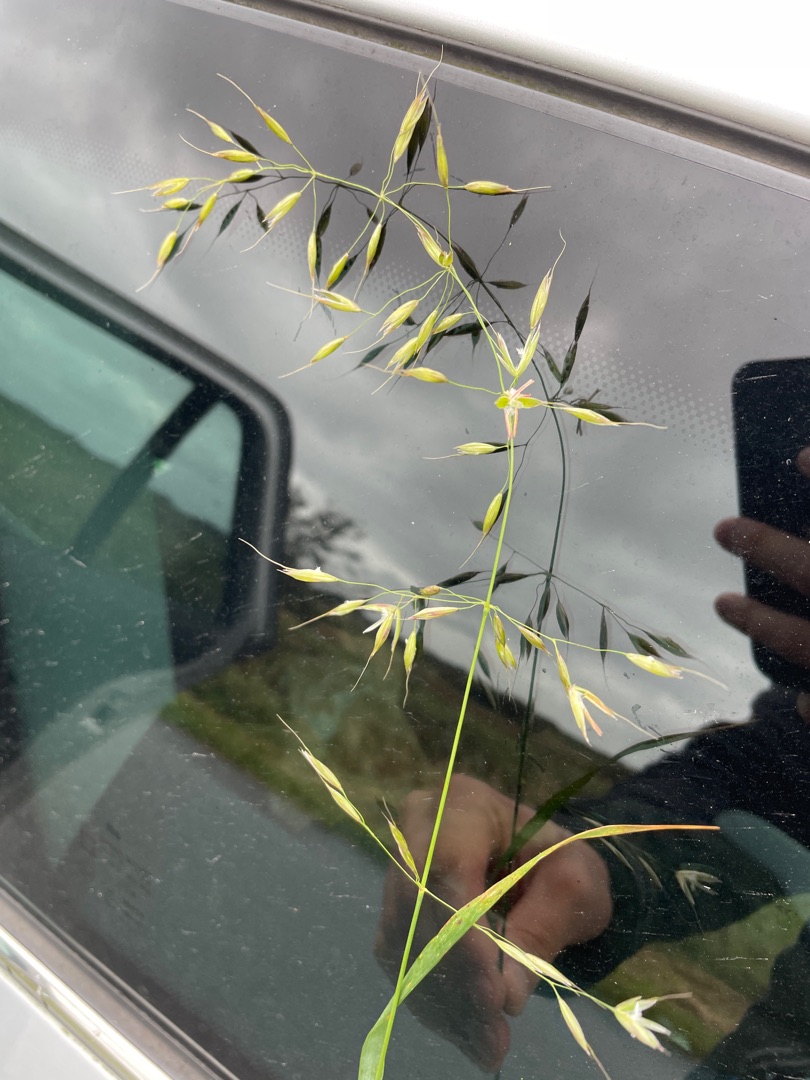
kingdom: Plantae
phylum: Tracheophyta
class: Liliopsida
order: Poales
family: Poaceae
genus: Arrhenatherum
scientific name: Arrhenatherum elatius
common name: Draphavre
